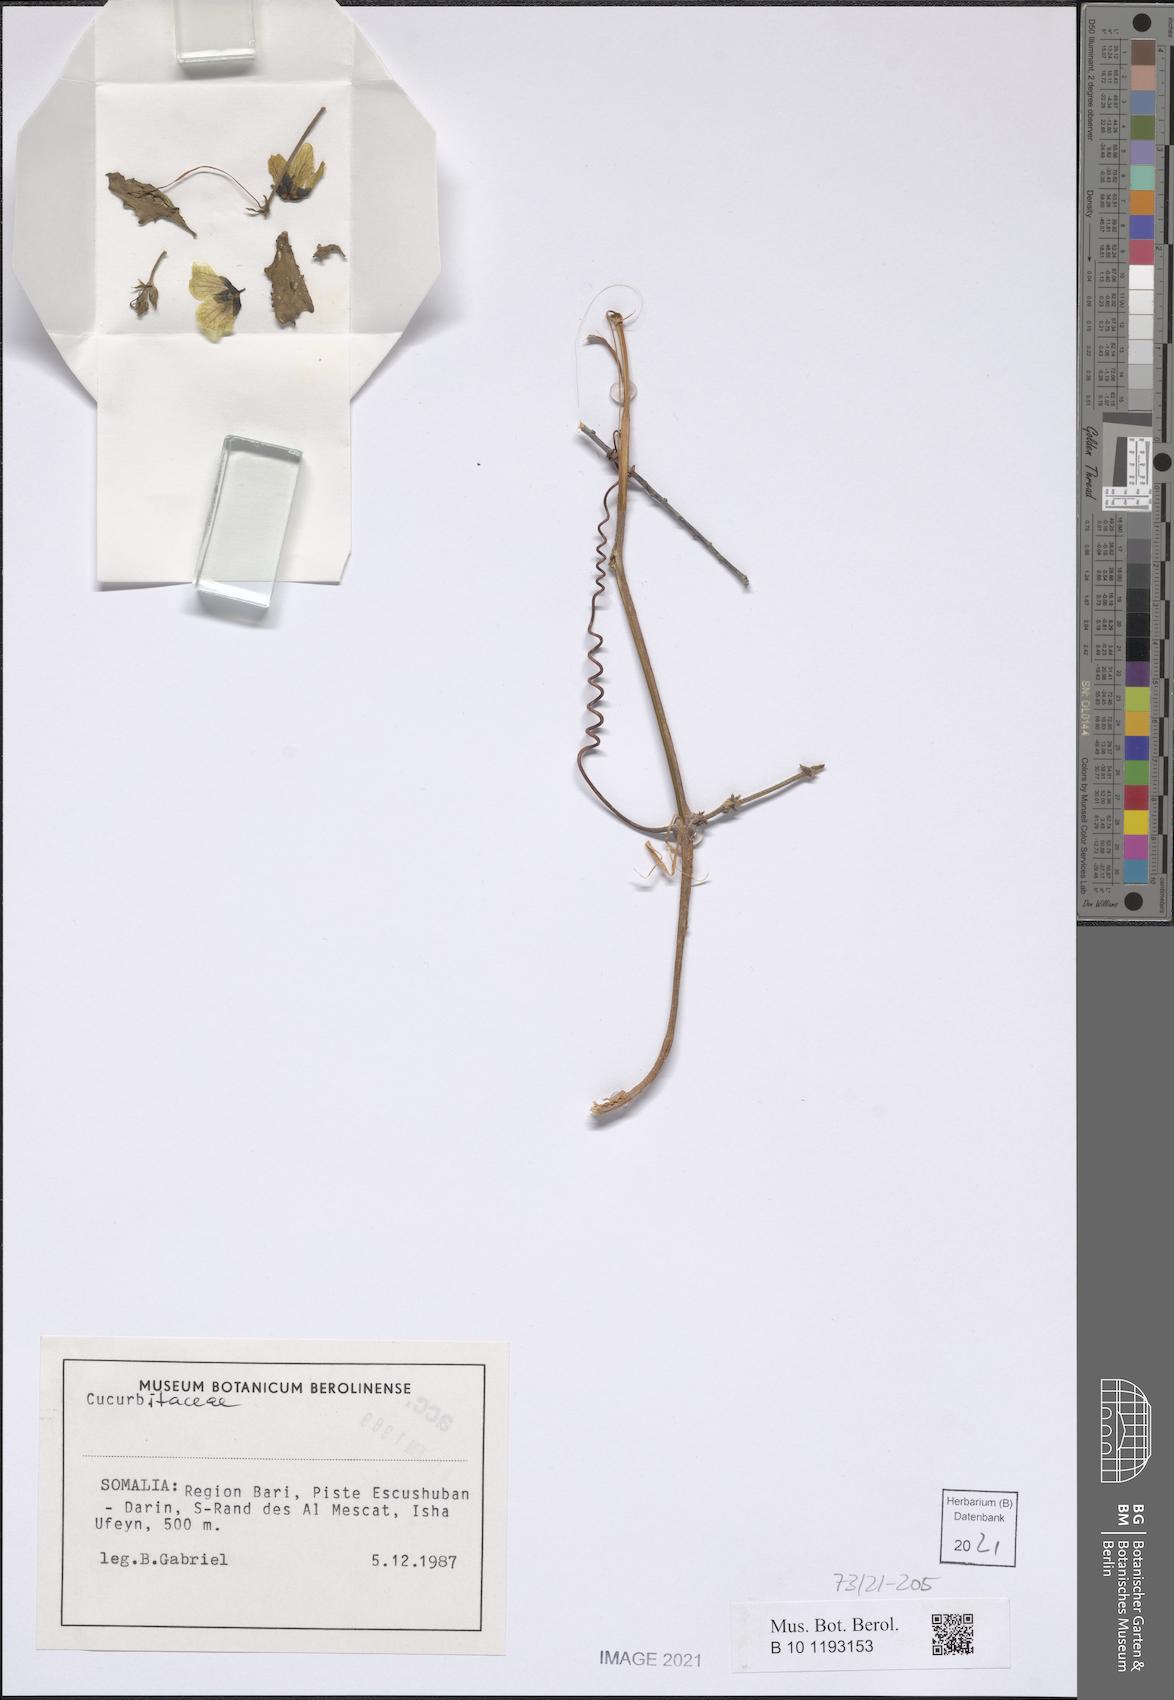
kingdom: Plantae
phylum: Tracheophyta
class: Magnoliopsida
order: Cucurbitales
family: Cucurbitaceae
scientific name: Cucurbitaceae
